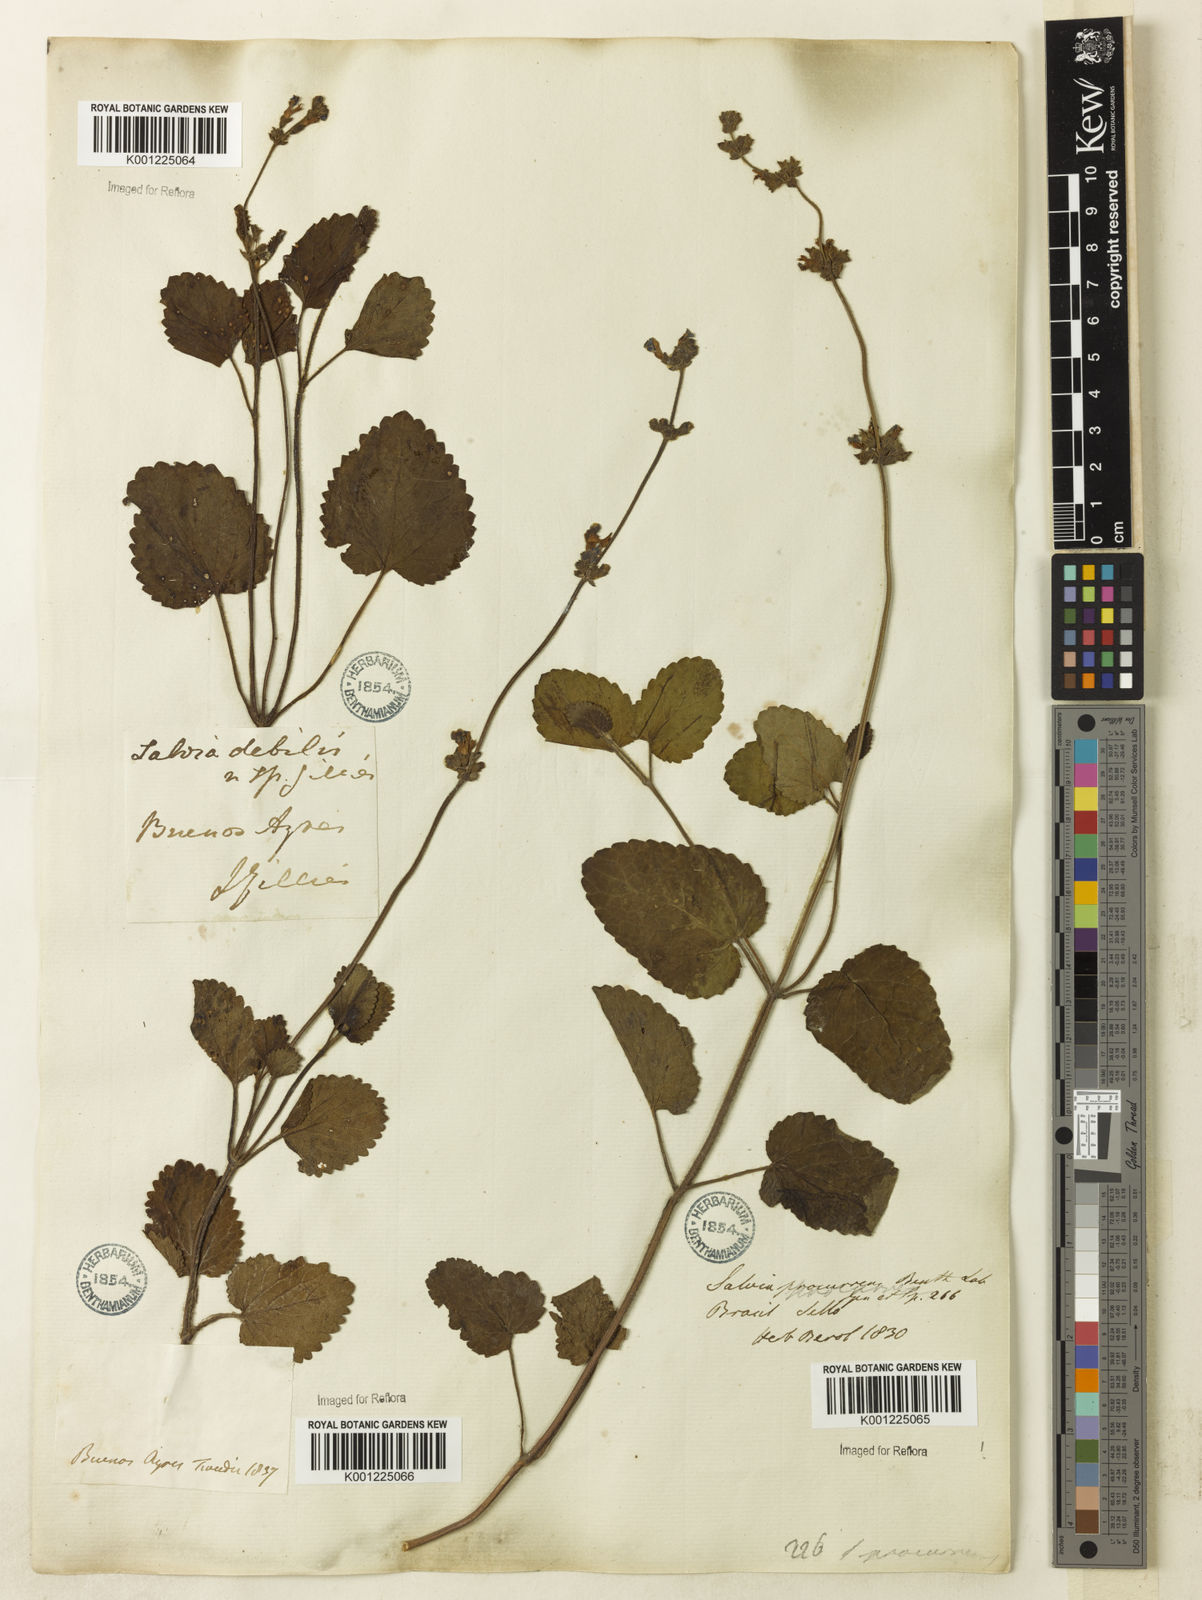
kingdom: Plantae
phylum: Tracheophyta
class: Magnoliopsida
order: Lamiales
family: Lamiaceae
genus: Salvia
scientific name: Salvia procurrens
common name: Blue creeper
